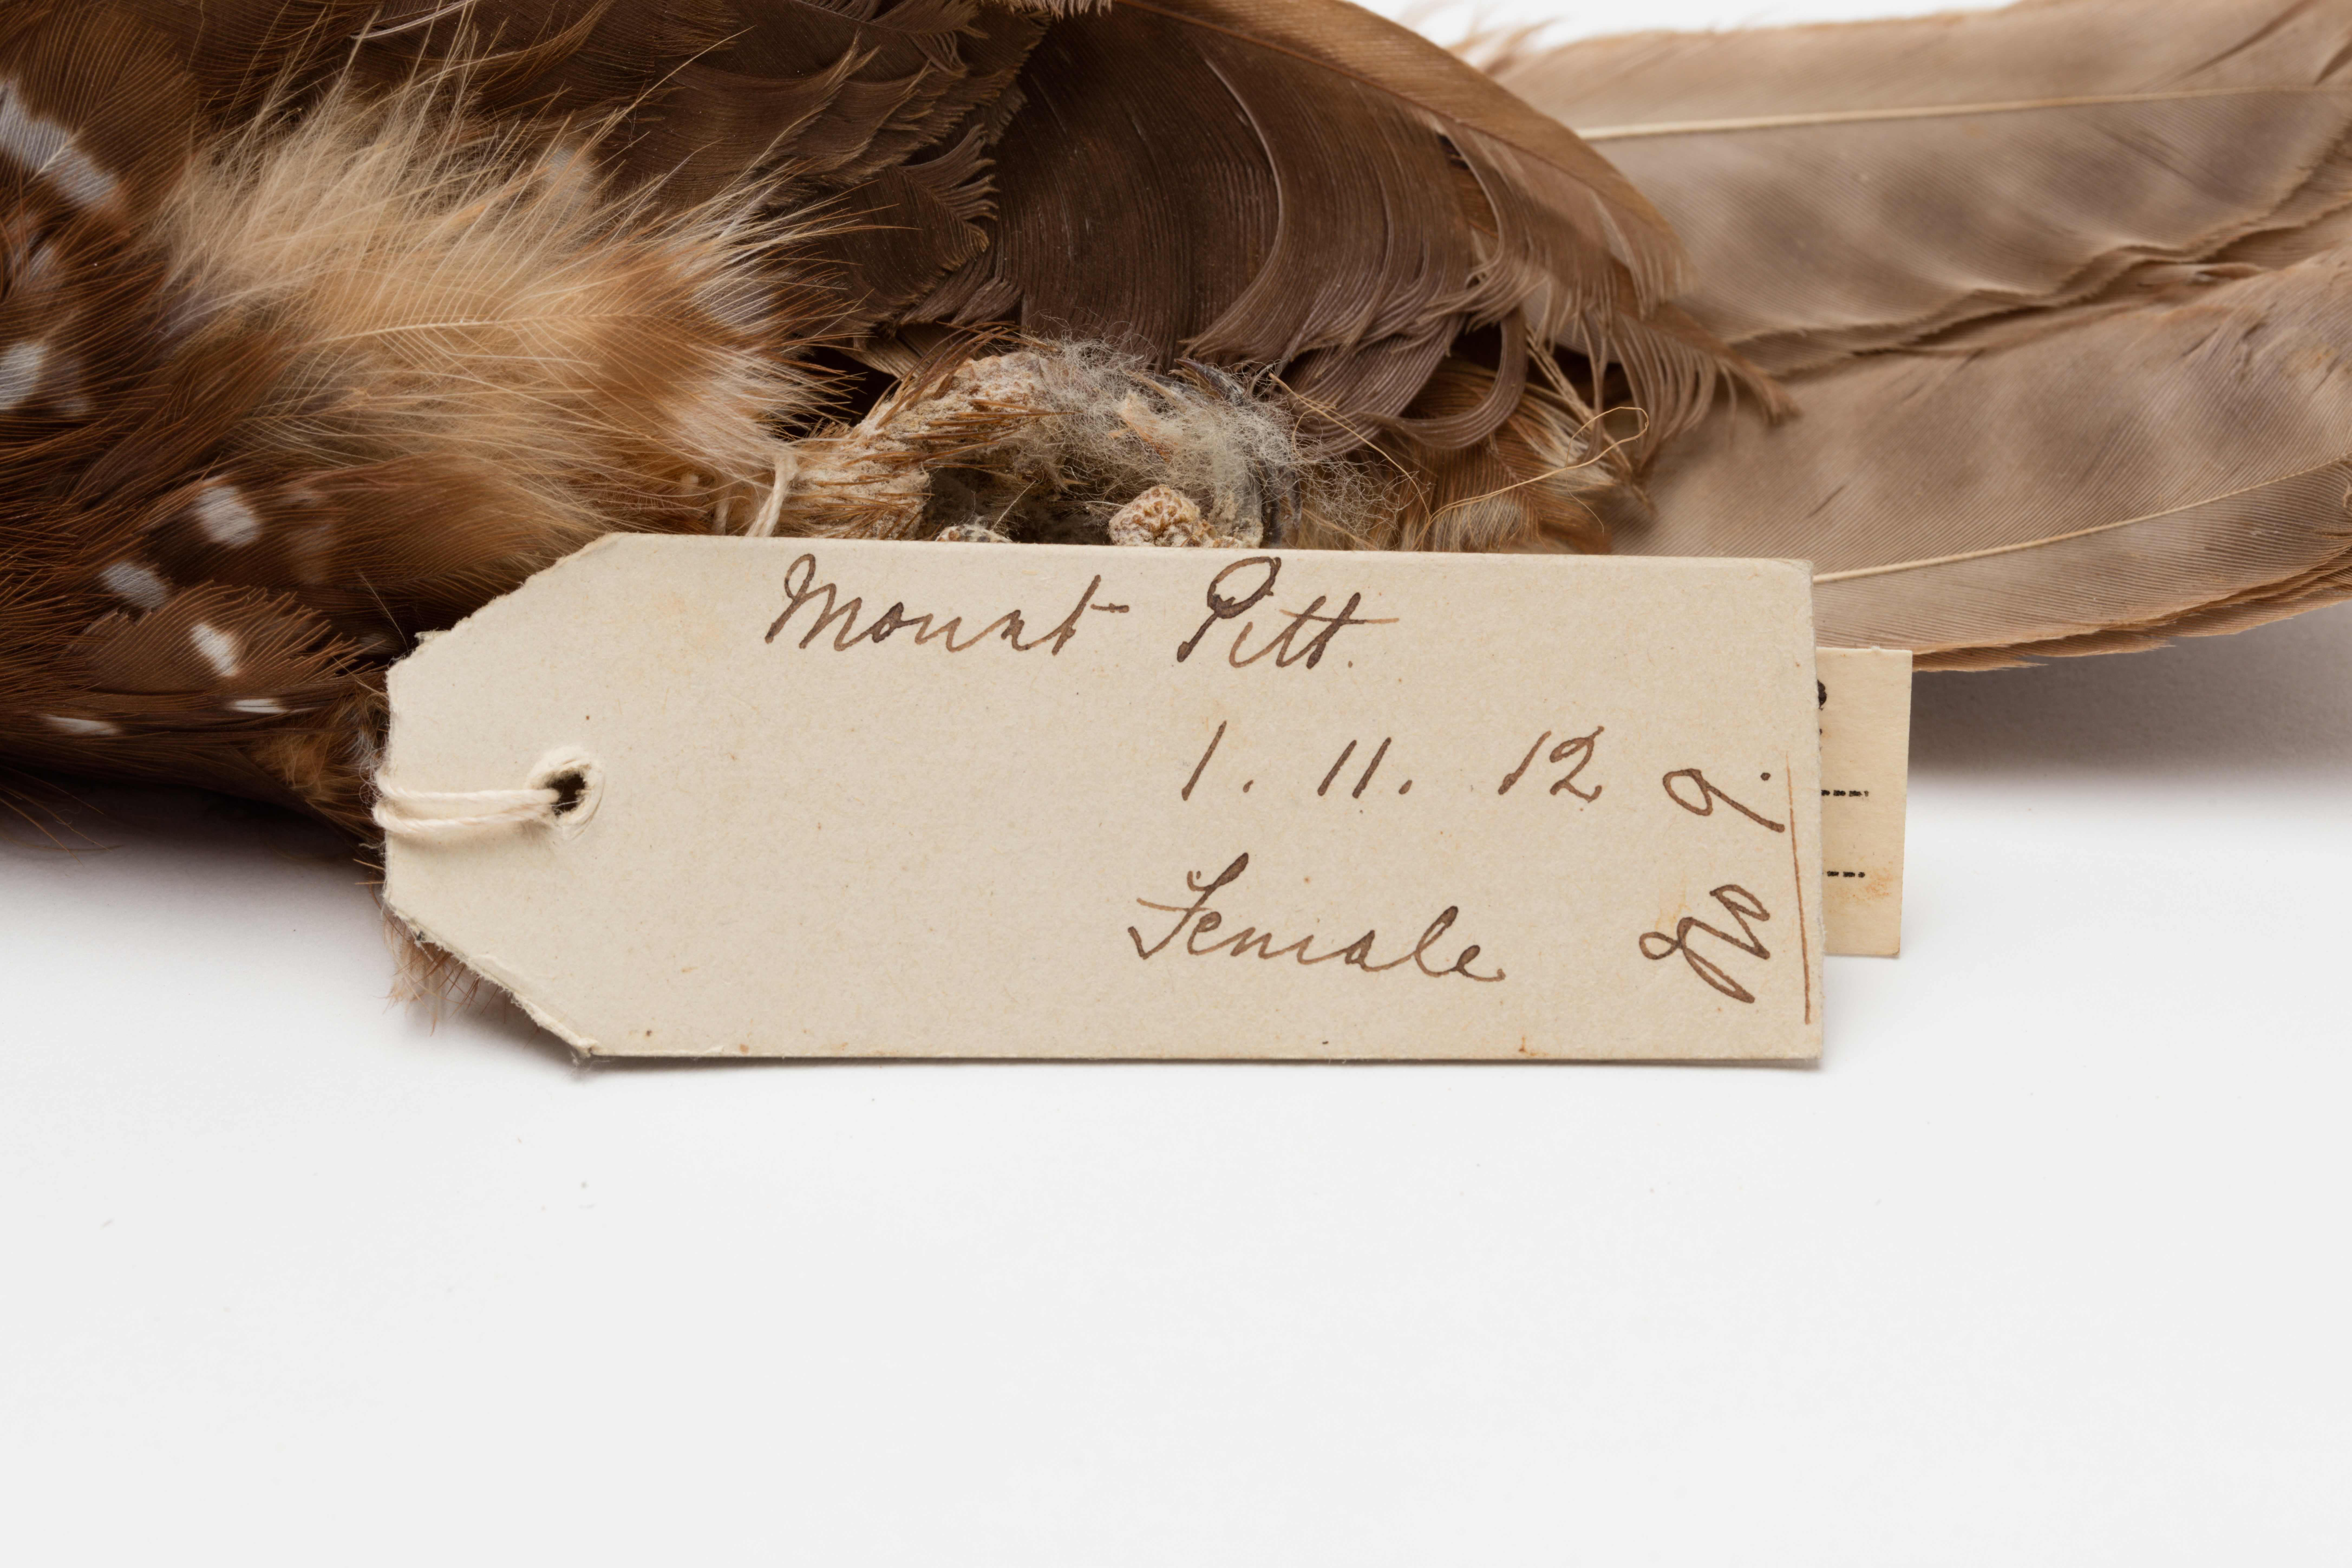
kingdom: Animalia
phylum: Chordata
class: Aves
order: Strigiformes
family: Strigidae
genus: Ninox
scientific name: Ninox novaeseelandiae
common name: Morepork
